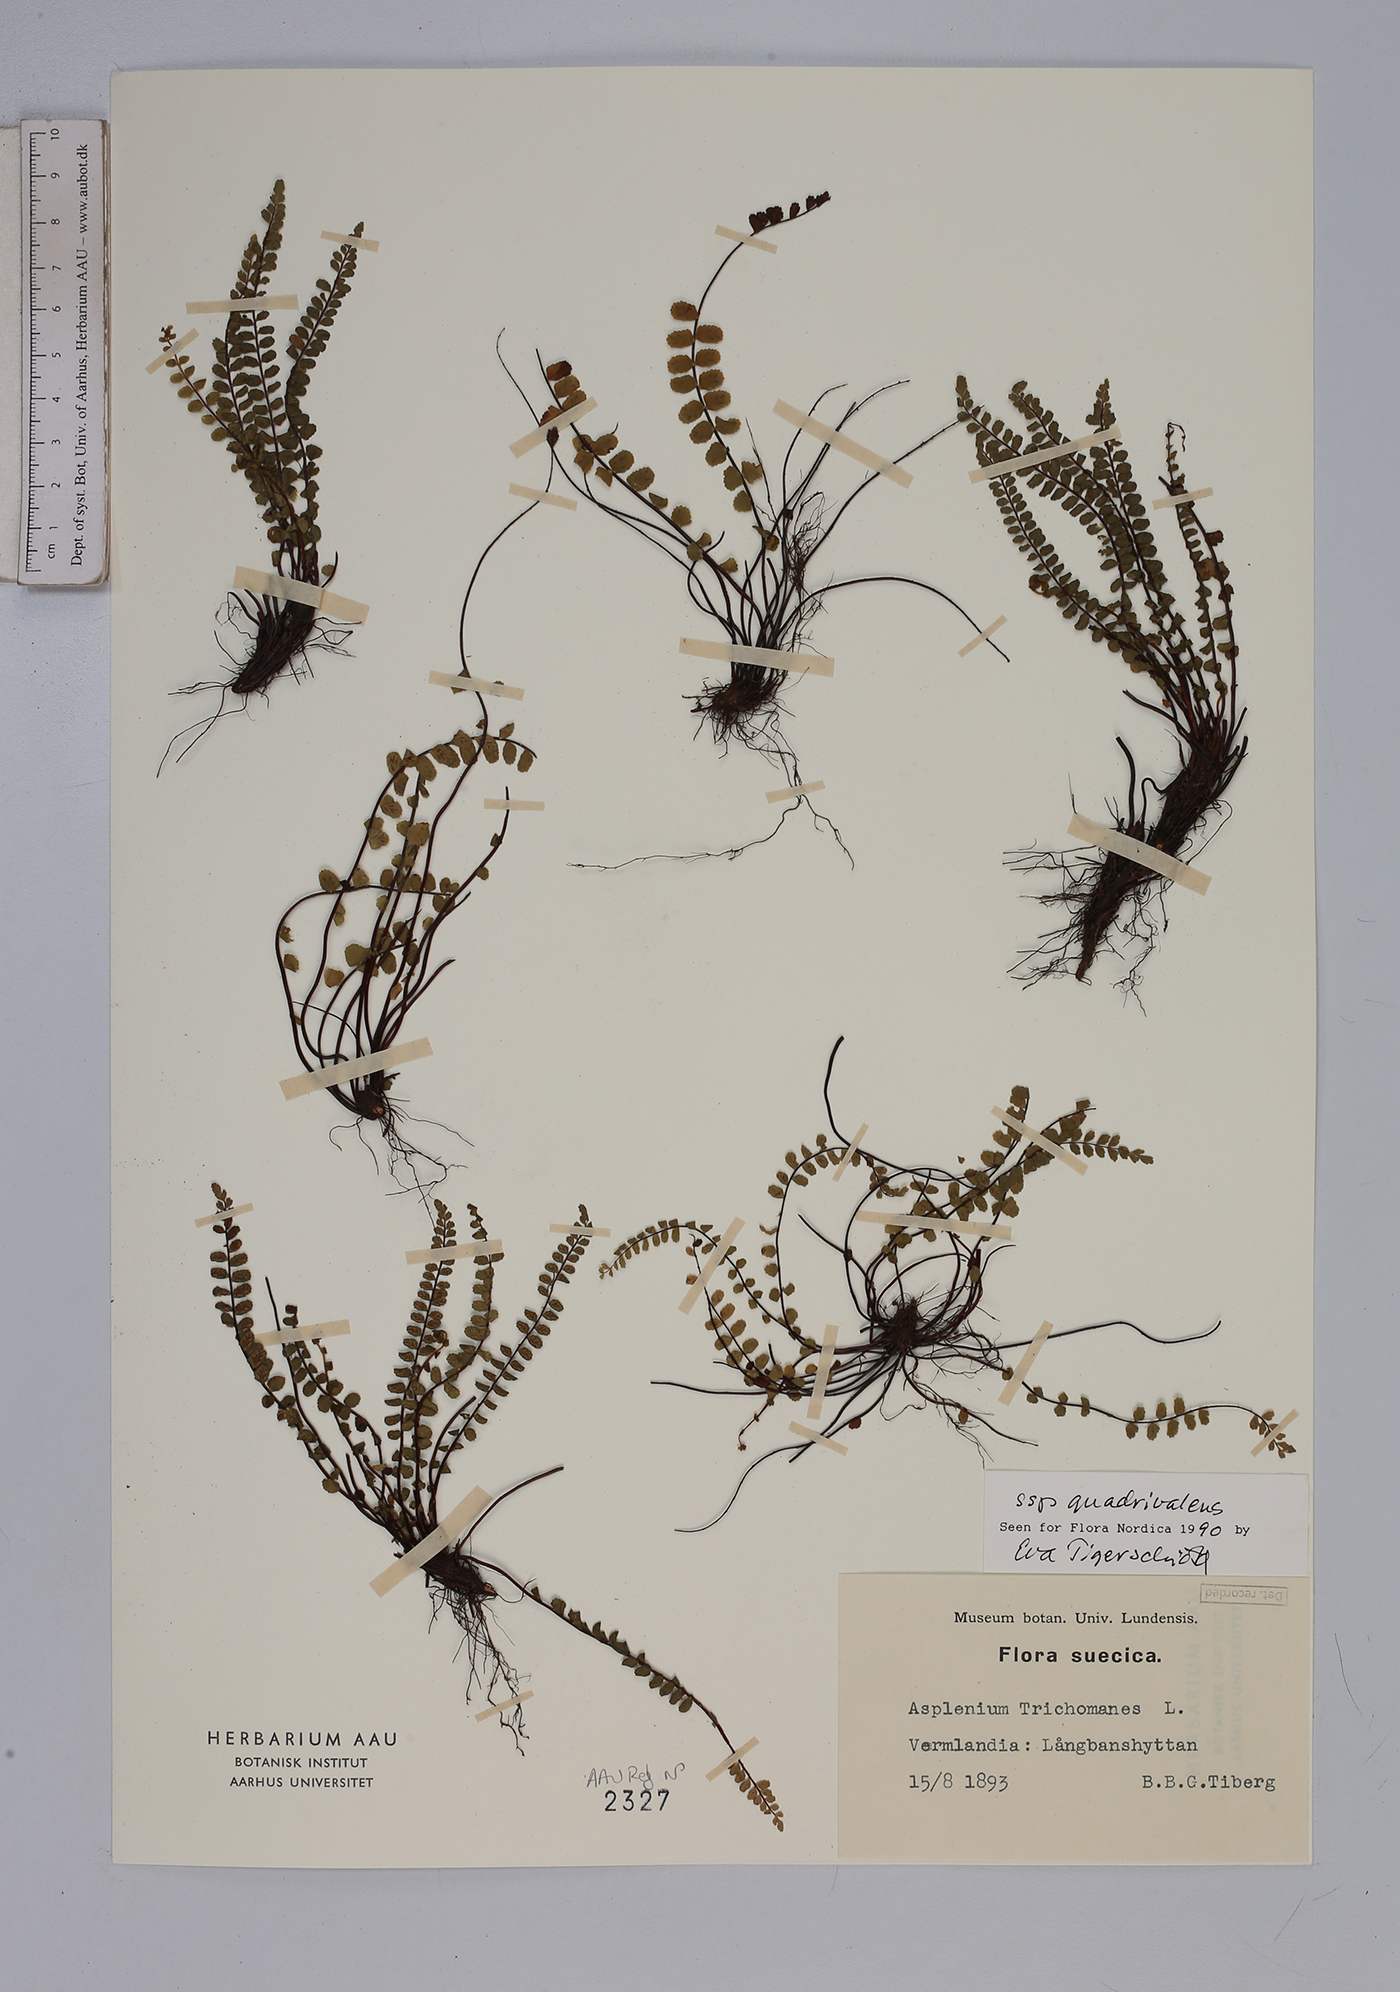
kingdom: Plantae
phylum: Tracheophyta
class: Polypodiopsida
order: Polypodiales
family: Aspleniaceae
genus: Asplenium
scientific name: Asplenium quadrivalens
